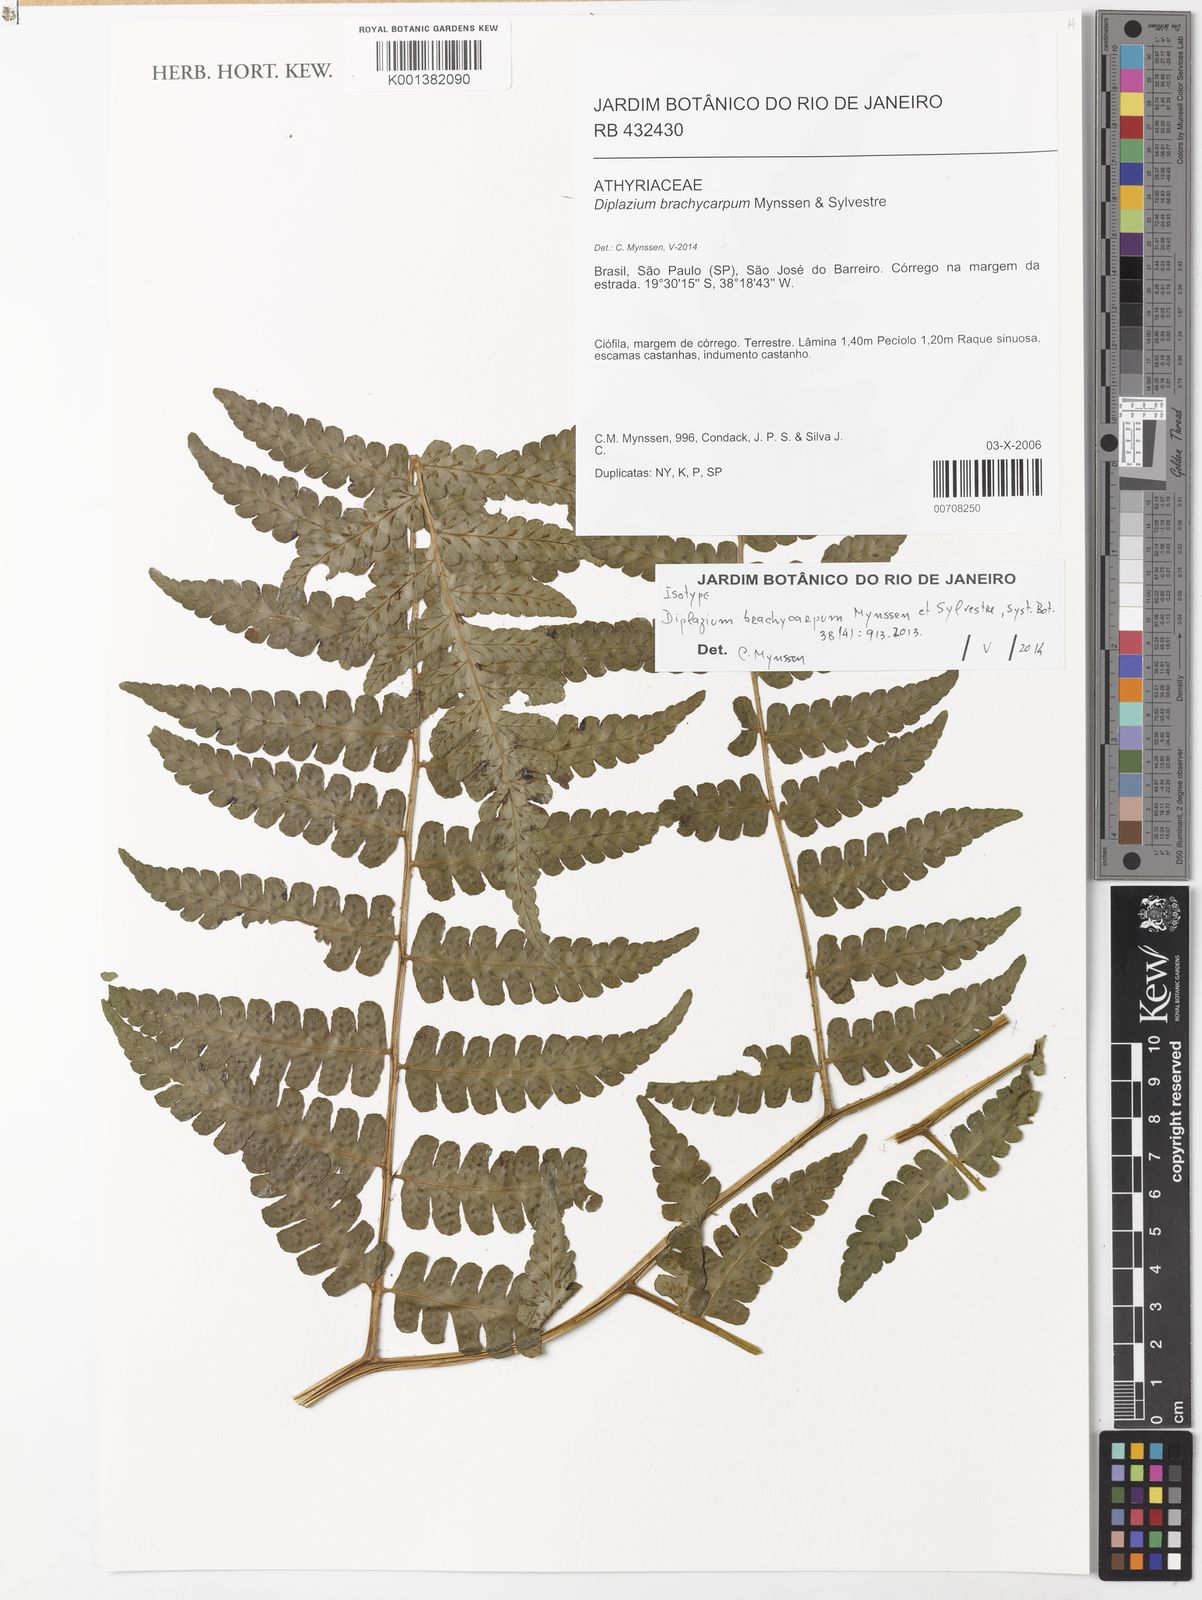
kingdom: Plantae
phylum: Tracheophyta
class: Polypodiopsida
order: Polypodiales
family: Athyriaceae
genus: Diplazium
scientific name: Diplazium brachycarpum
